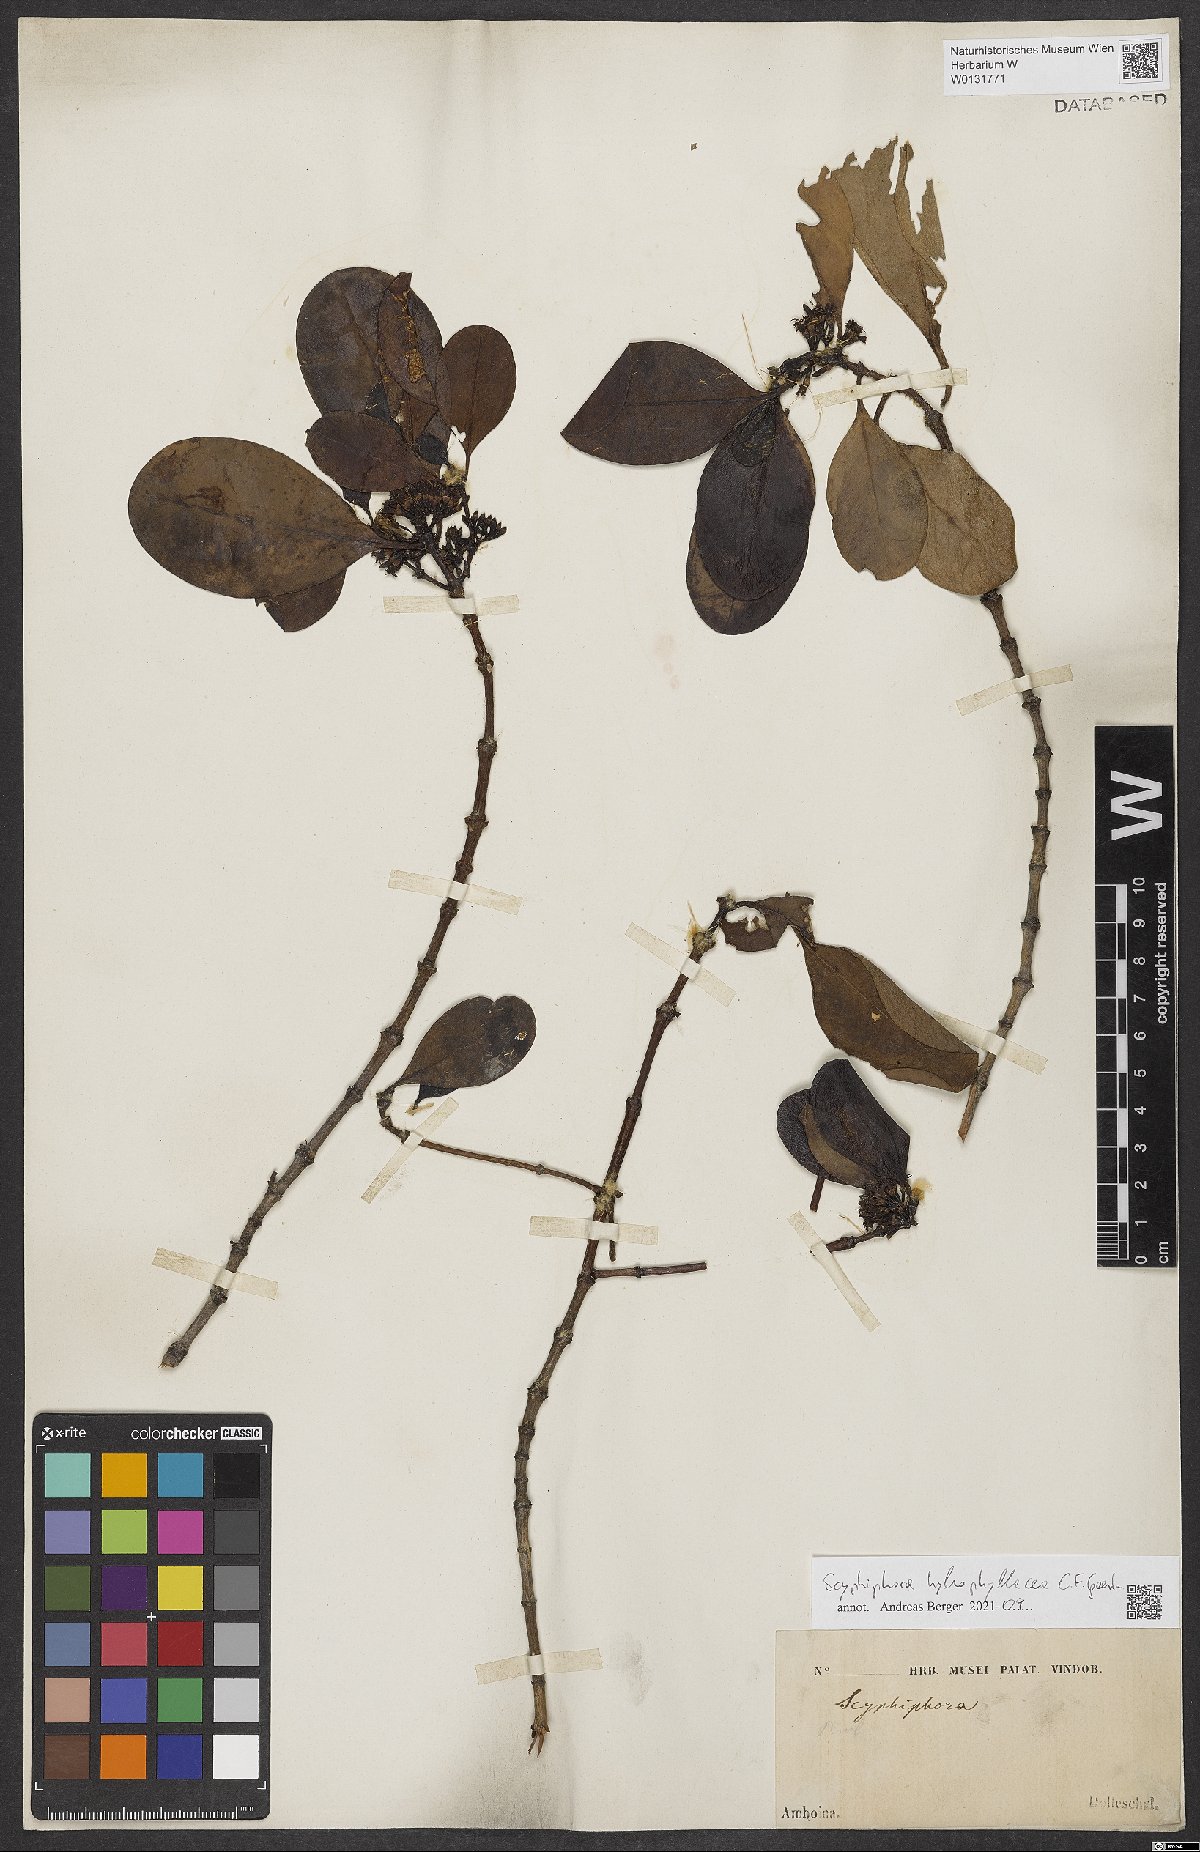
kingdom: Plantae
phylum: Tracheophyta
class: Magnoliopsida
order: Gentianales
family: Rubiaceae
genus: Scyphiphora
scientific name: Scyphiphora hydrophylacea
